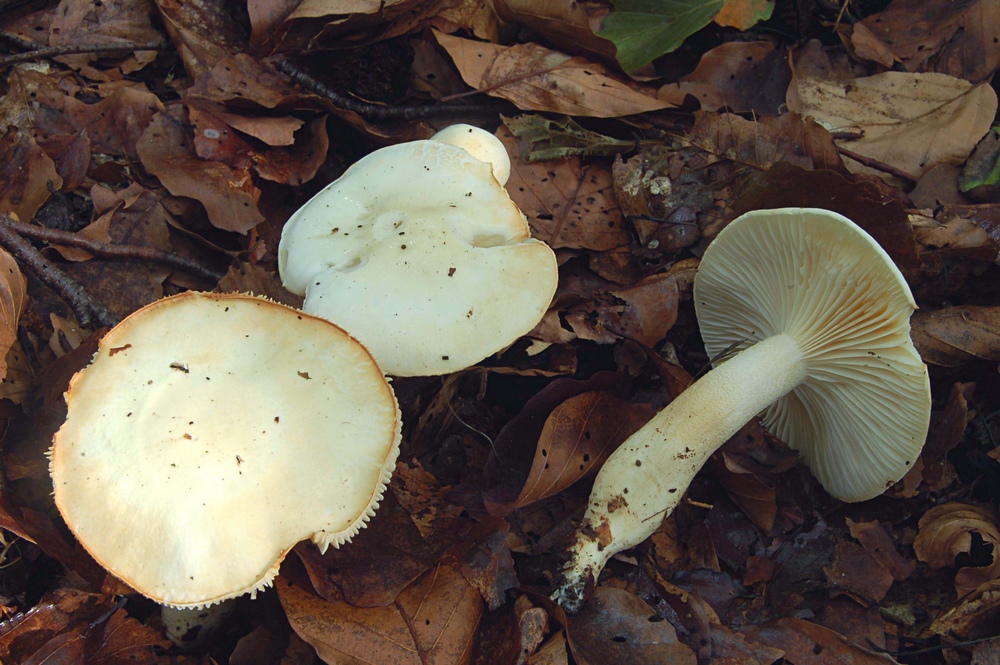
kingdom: Fungi
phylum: Basidiomycota
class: Agaricomycetes
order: Agaricales
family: Hygrophoraceae
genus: Hygrophorus
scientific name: Hygrophorus chrysodon
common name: gulfnugget sneglehat
